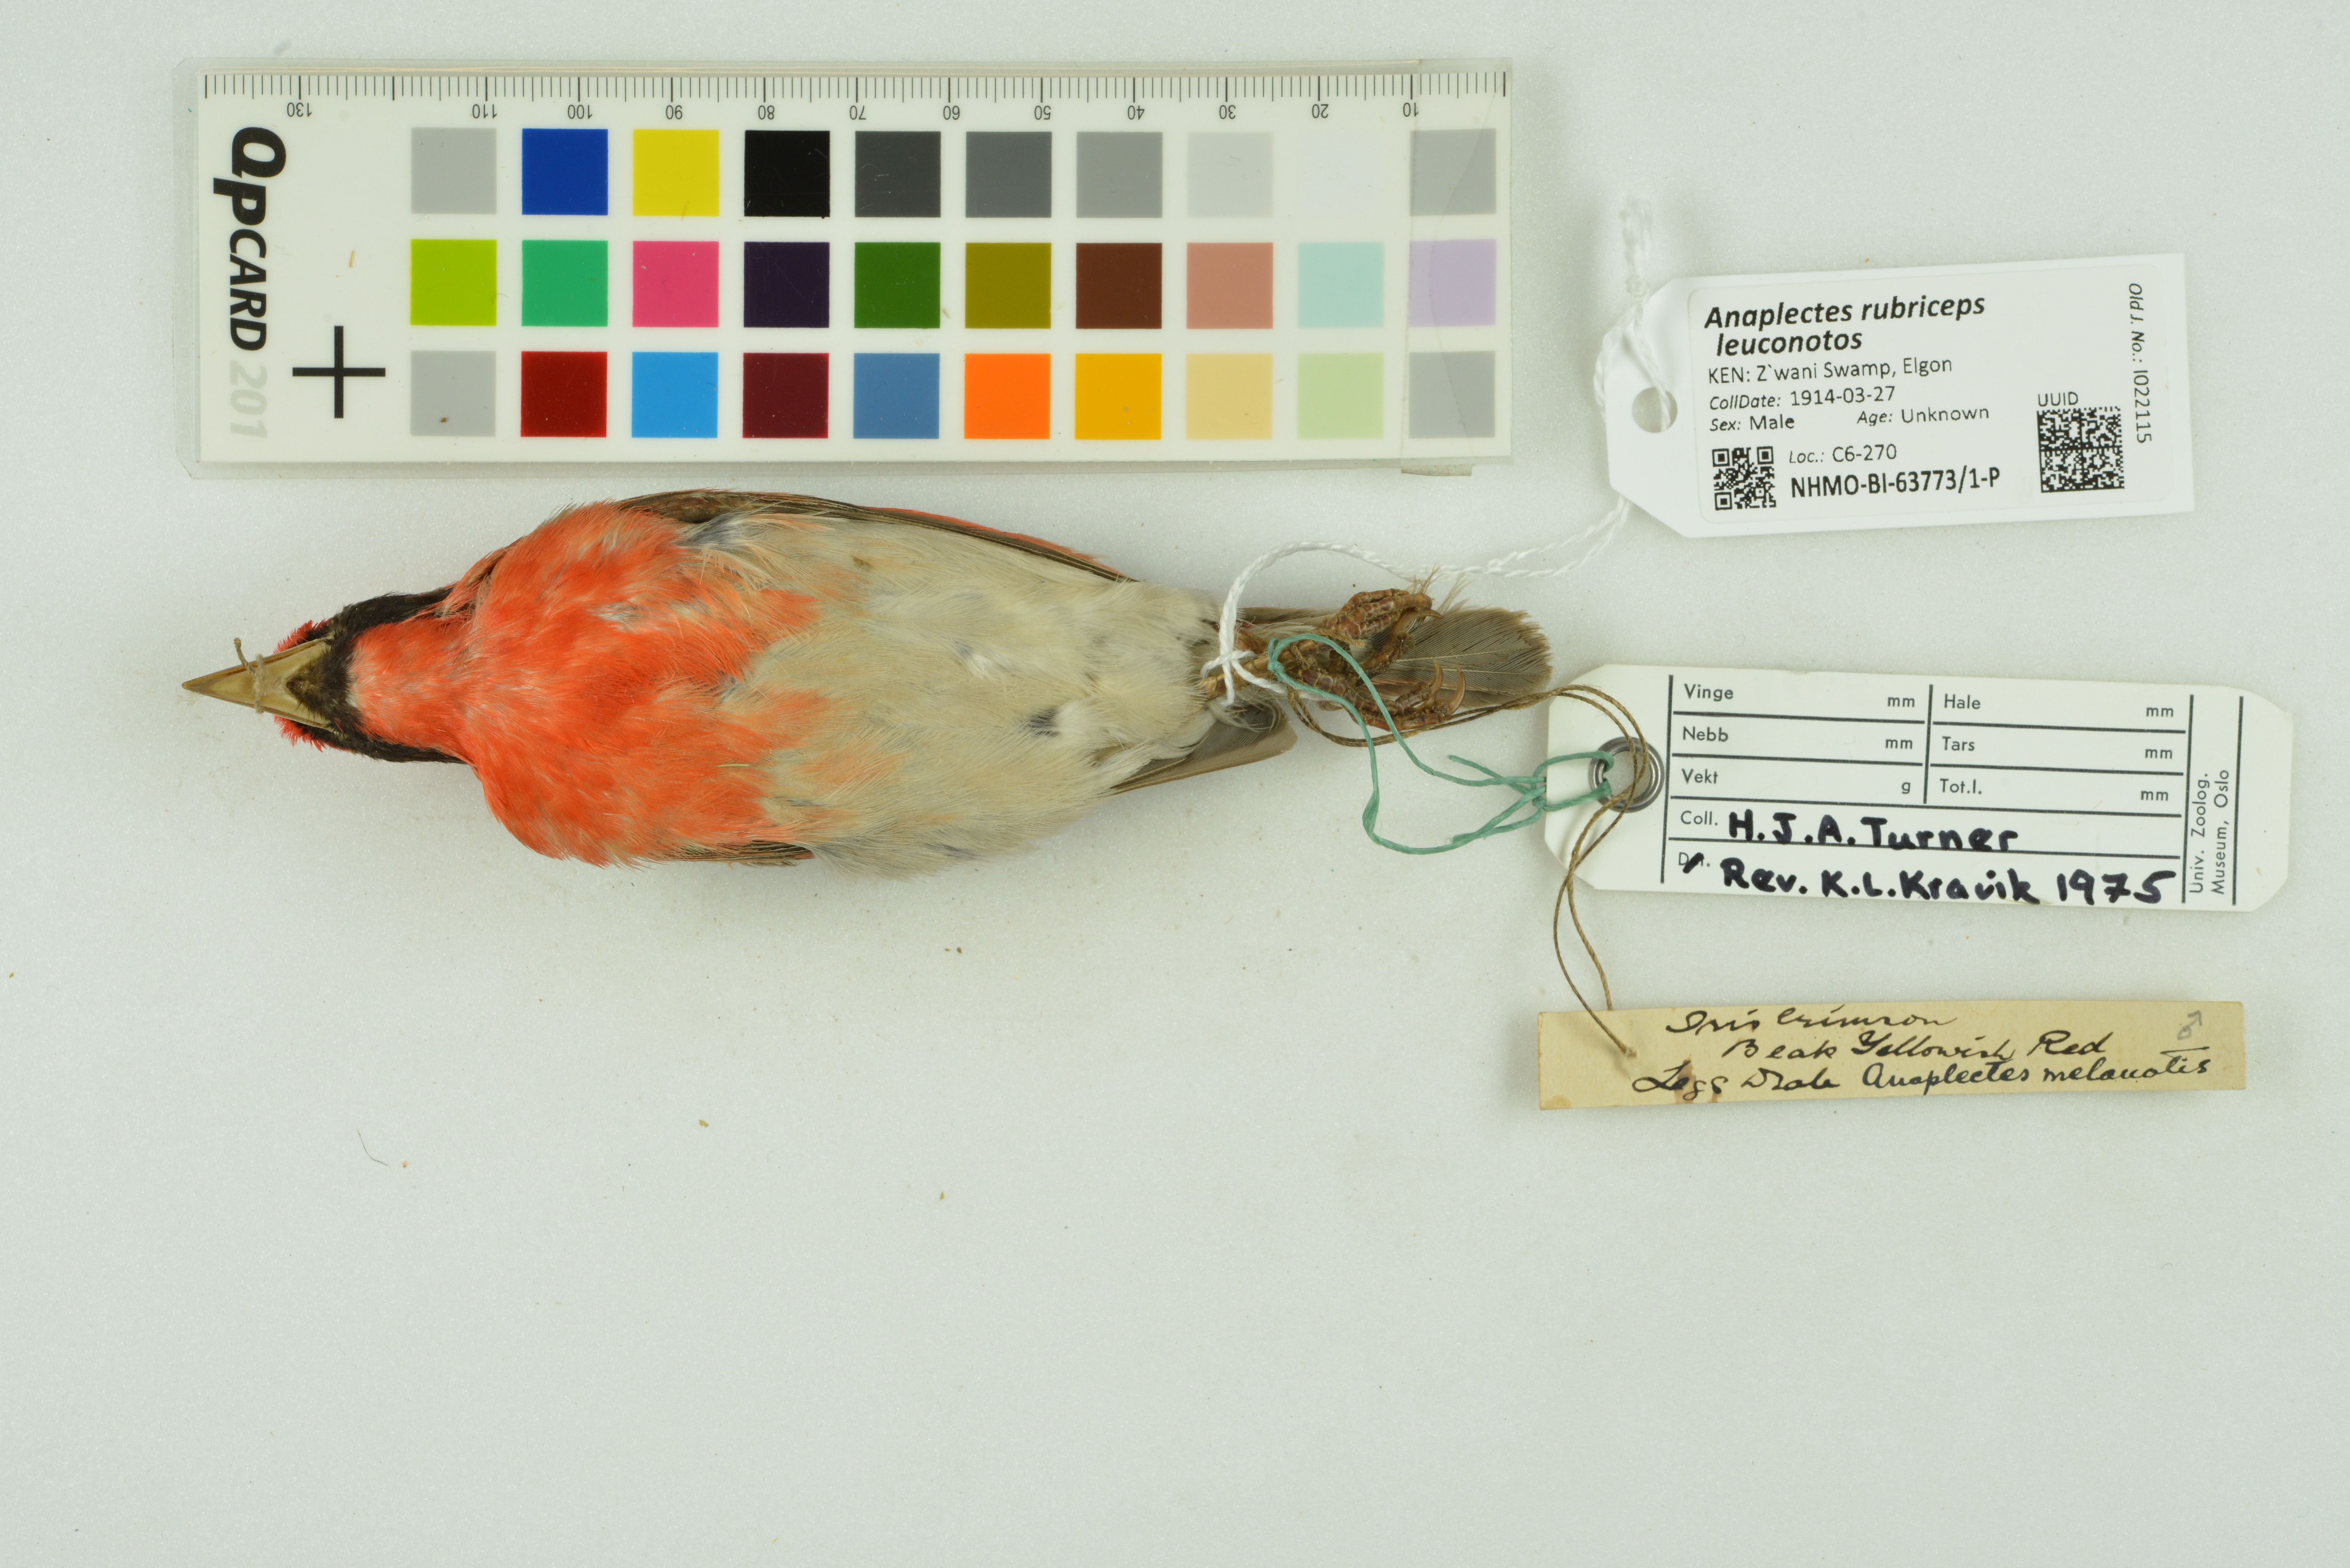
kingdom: Animalia
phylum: Chordata
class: Aves
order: Passeriformes
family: Ploceidae
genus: Anaplectes
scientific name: Anaplectes rubriceps
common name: Red-headed weaver
